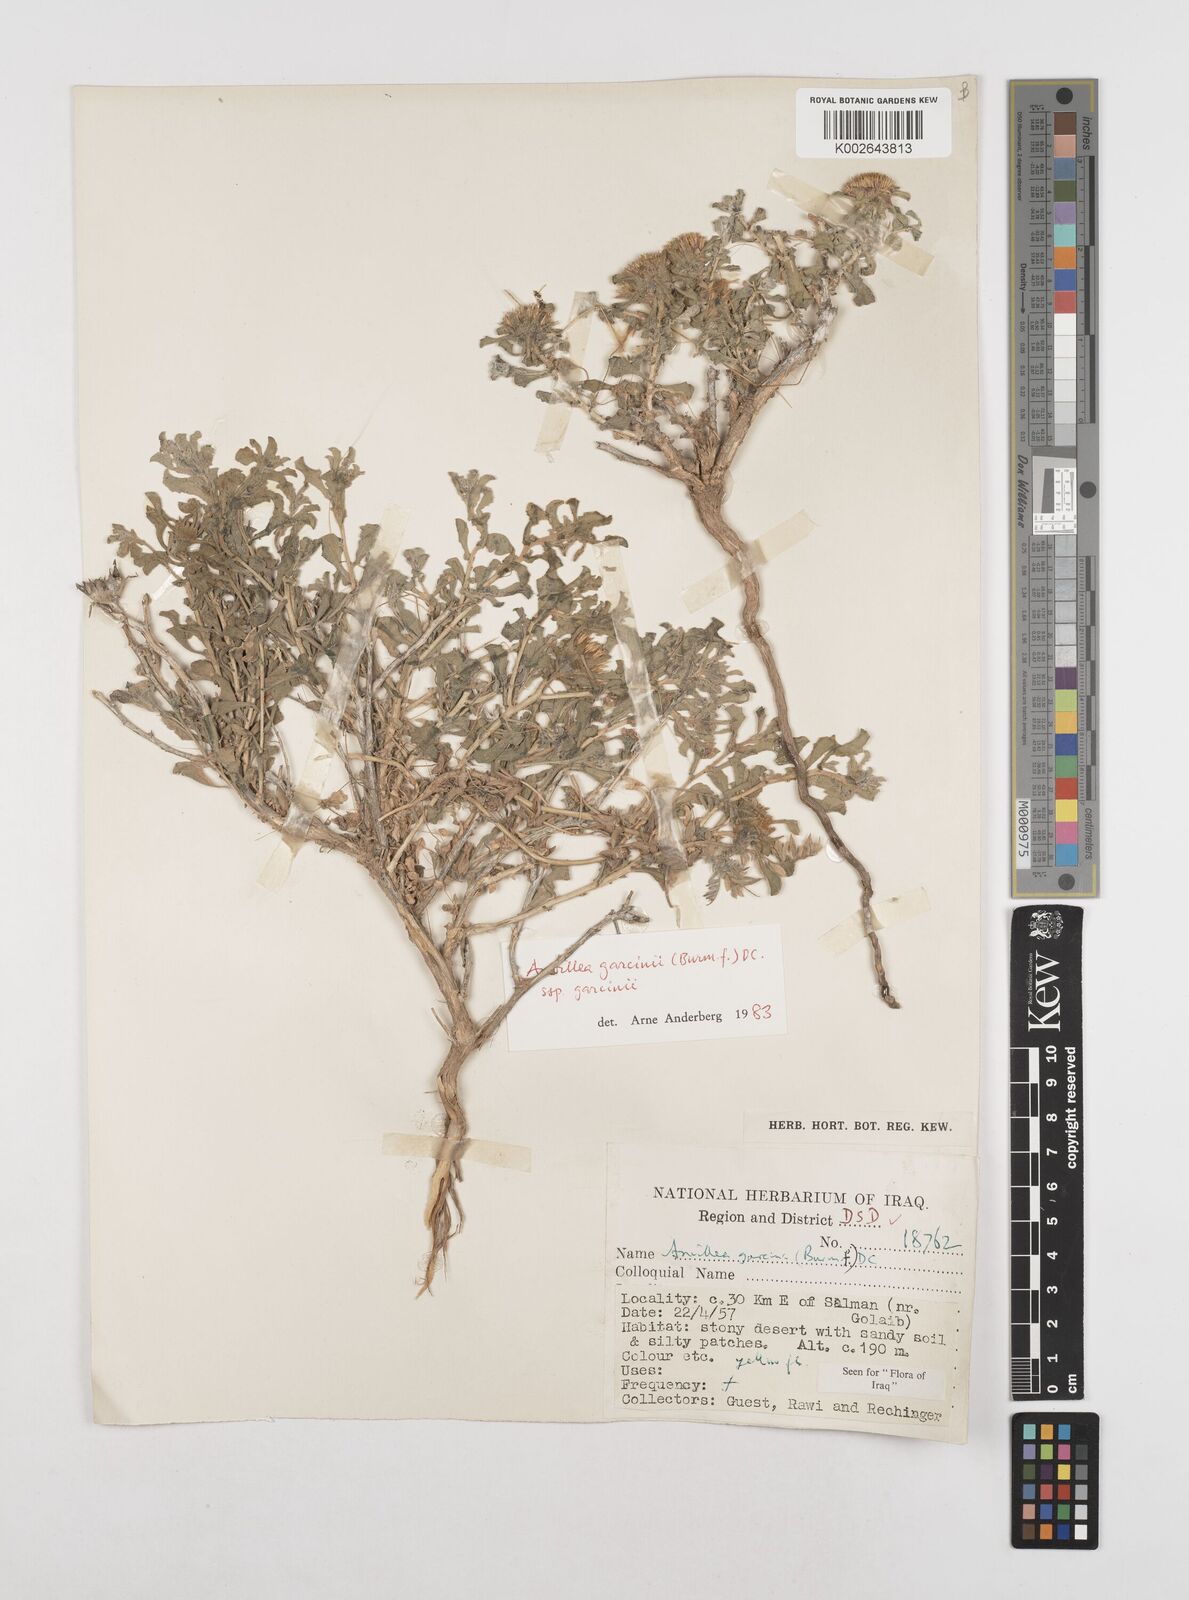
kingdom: Plantae
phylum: Tracheophyta
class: Magnoliopsida
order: Asterales
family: Asteraceae
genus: Anvillea
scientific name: Anvillea garcinii
